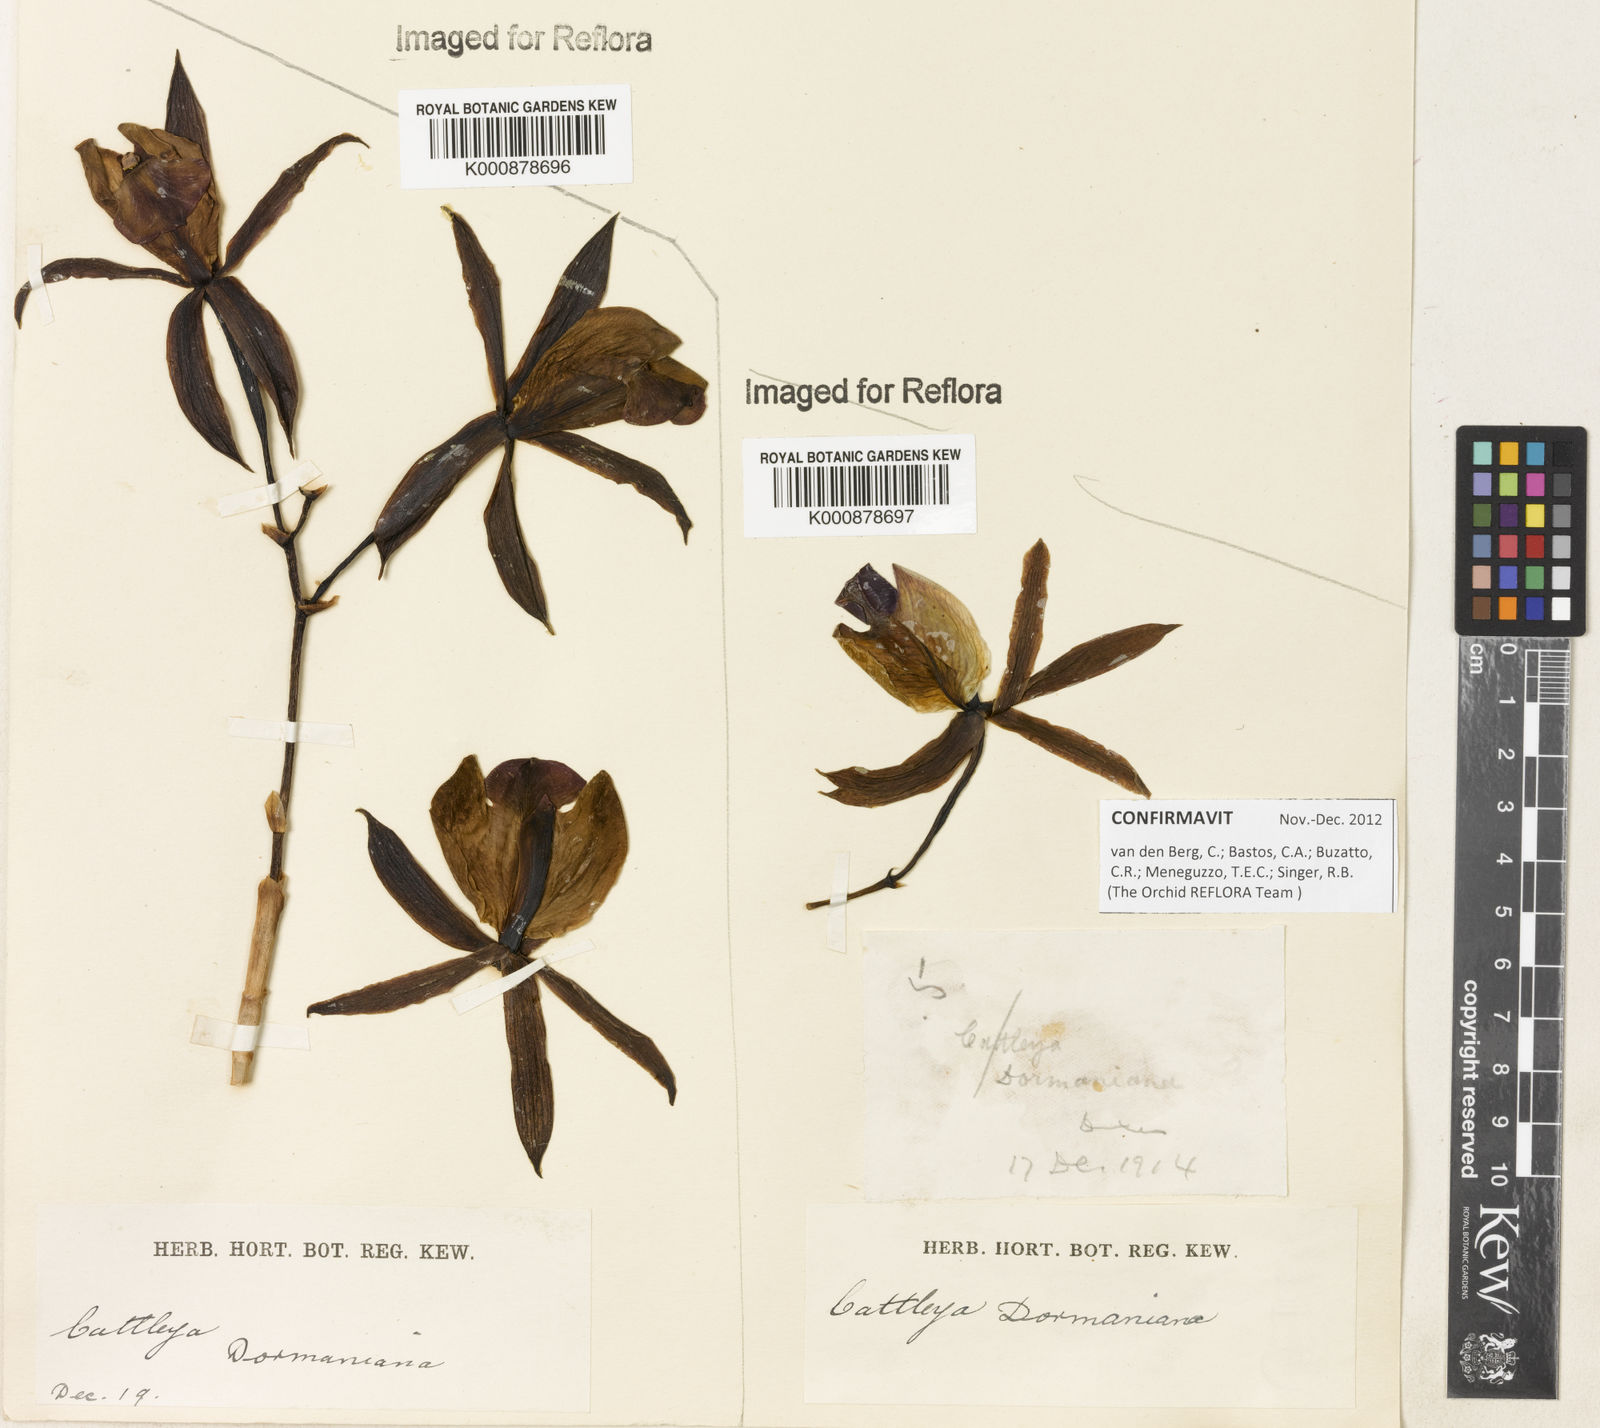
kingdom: Plantae
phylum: Tracheophyta
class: Liliopsida
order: Asparagales
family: Orchidaceae
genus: Cattleya
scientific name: Cattleya dormaniana
